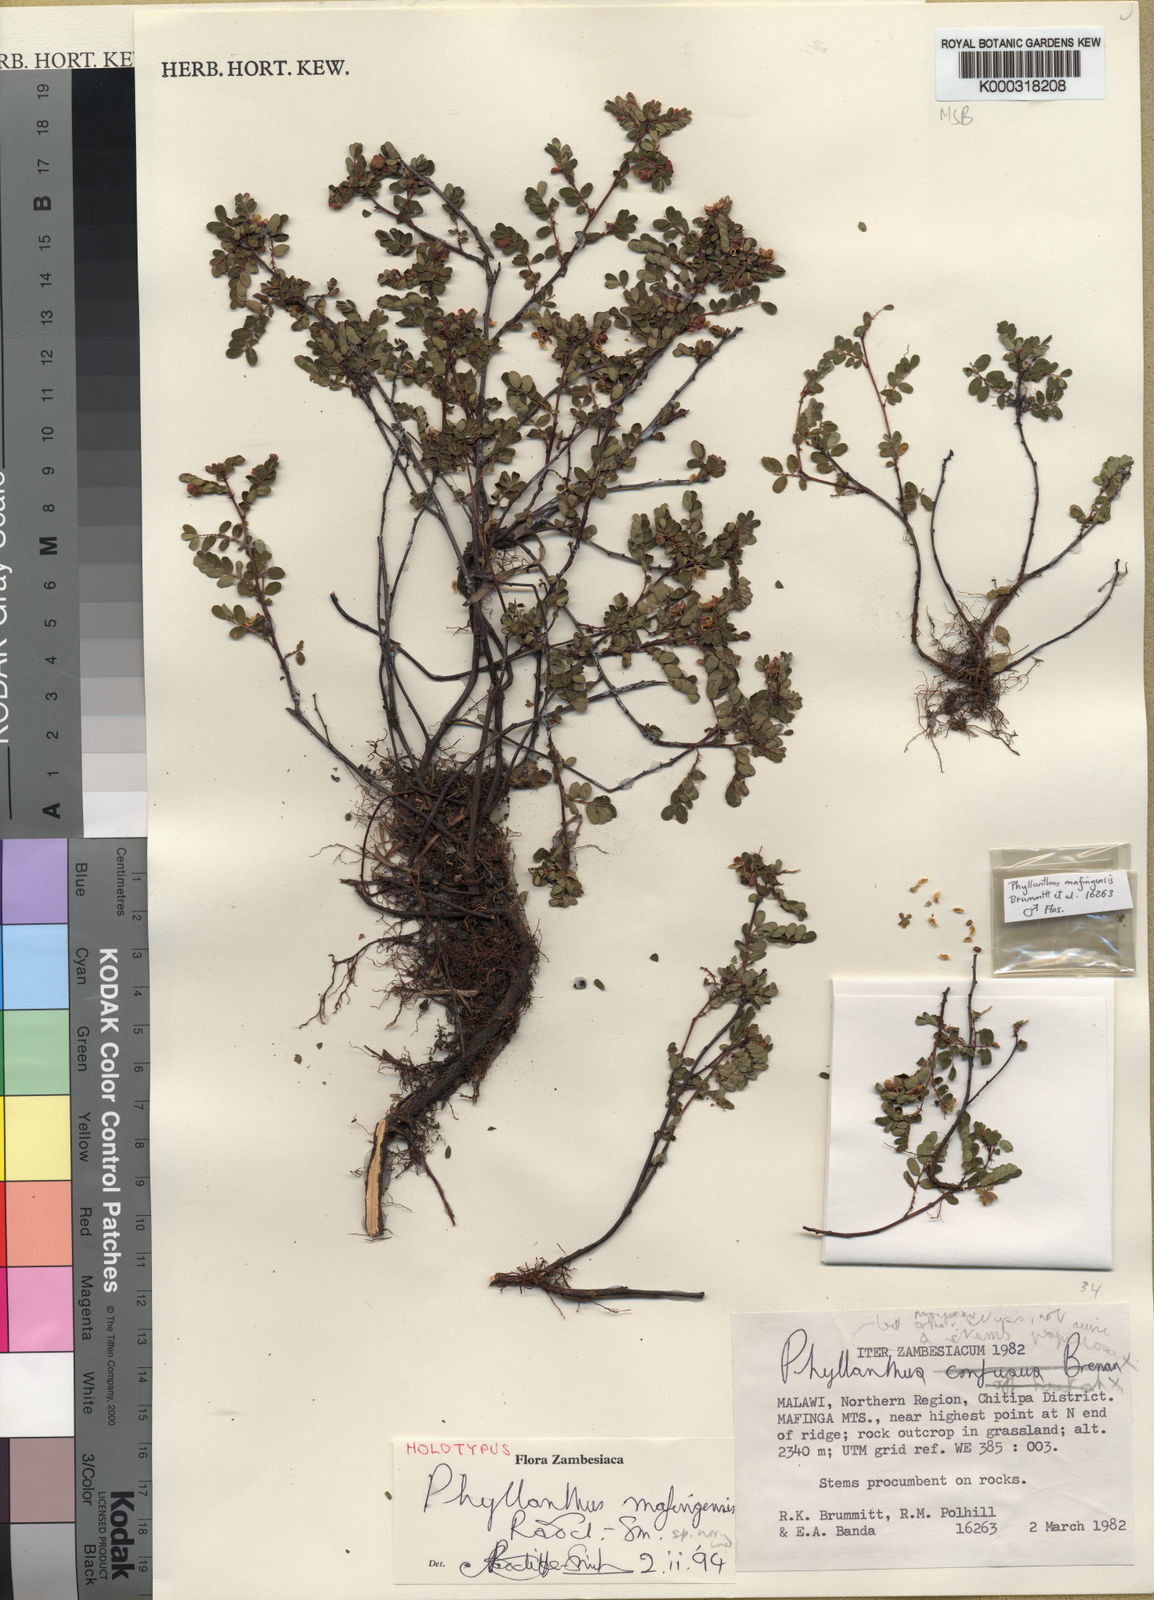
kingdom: Plantae
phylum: Tracheophyta
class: Magnoliopsida
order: Malpighiales
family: Phyllanthaceae
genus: Phyllanthus
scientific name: Phyllanthus mafingensis
